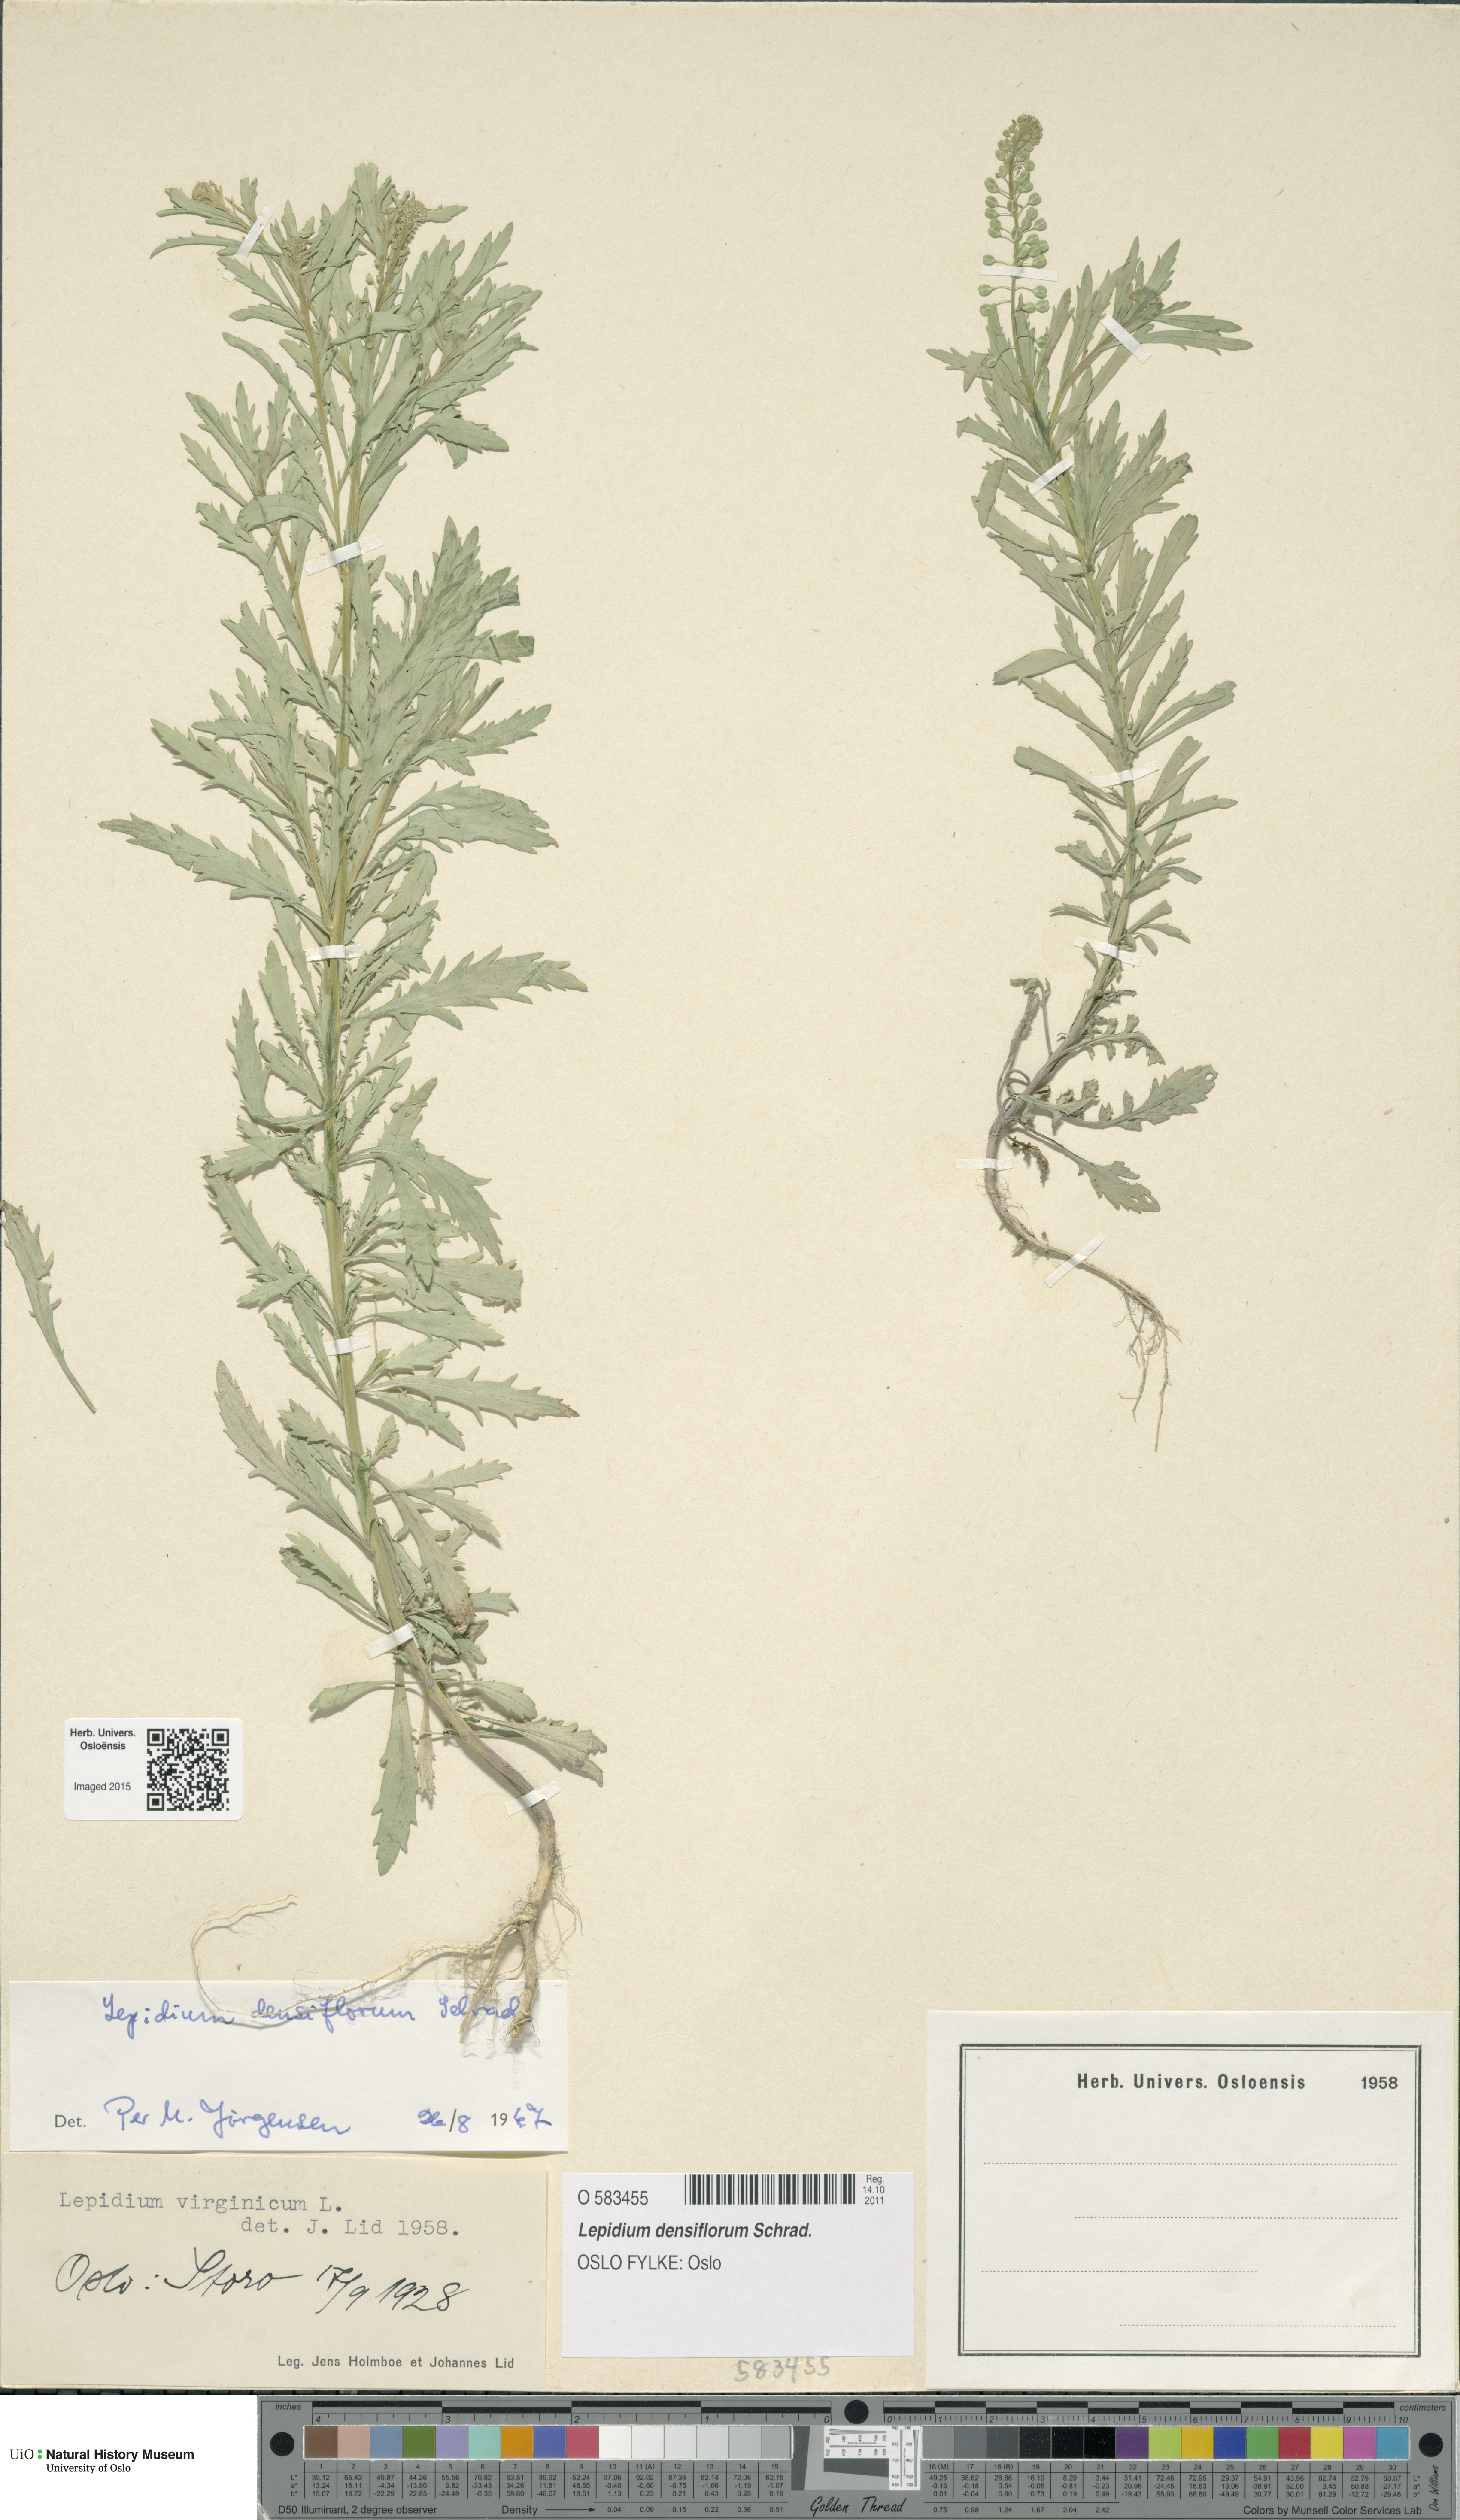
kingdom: Plantae
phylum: Tracheophyta
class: Magnoliopsida
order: Brassicales
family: Brassicaceae
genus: Lepidium
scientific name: Lepidium densiflorum
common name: Miner's pepperwort
